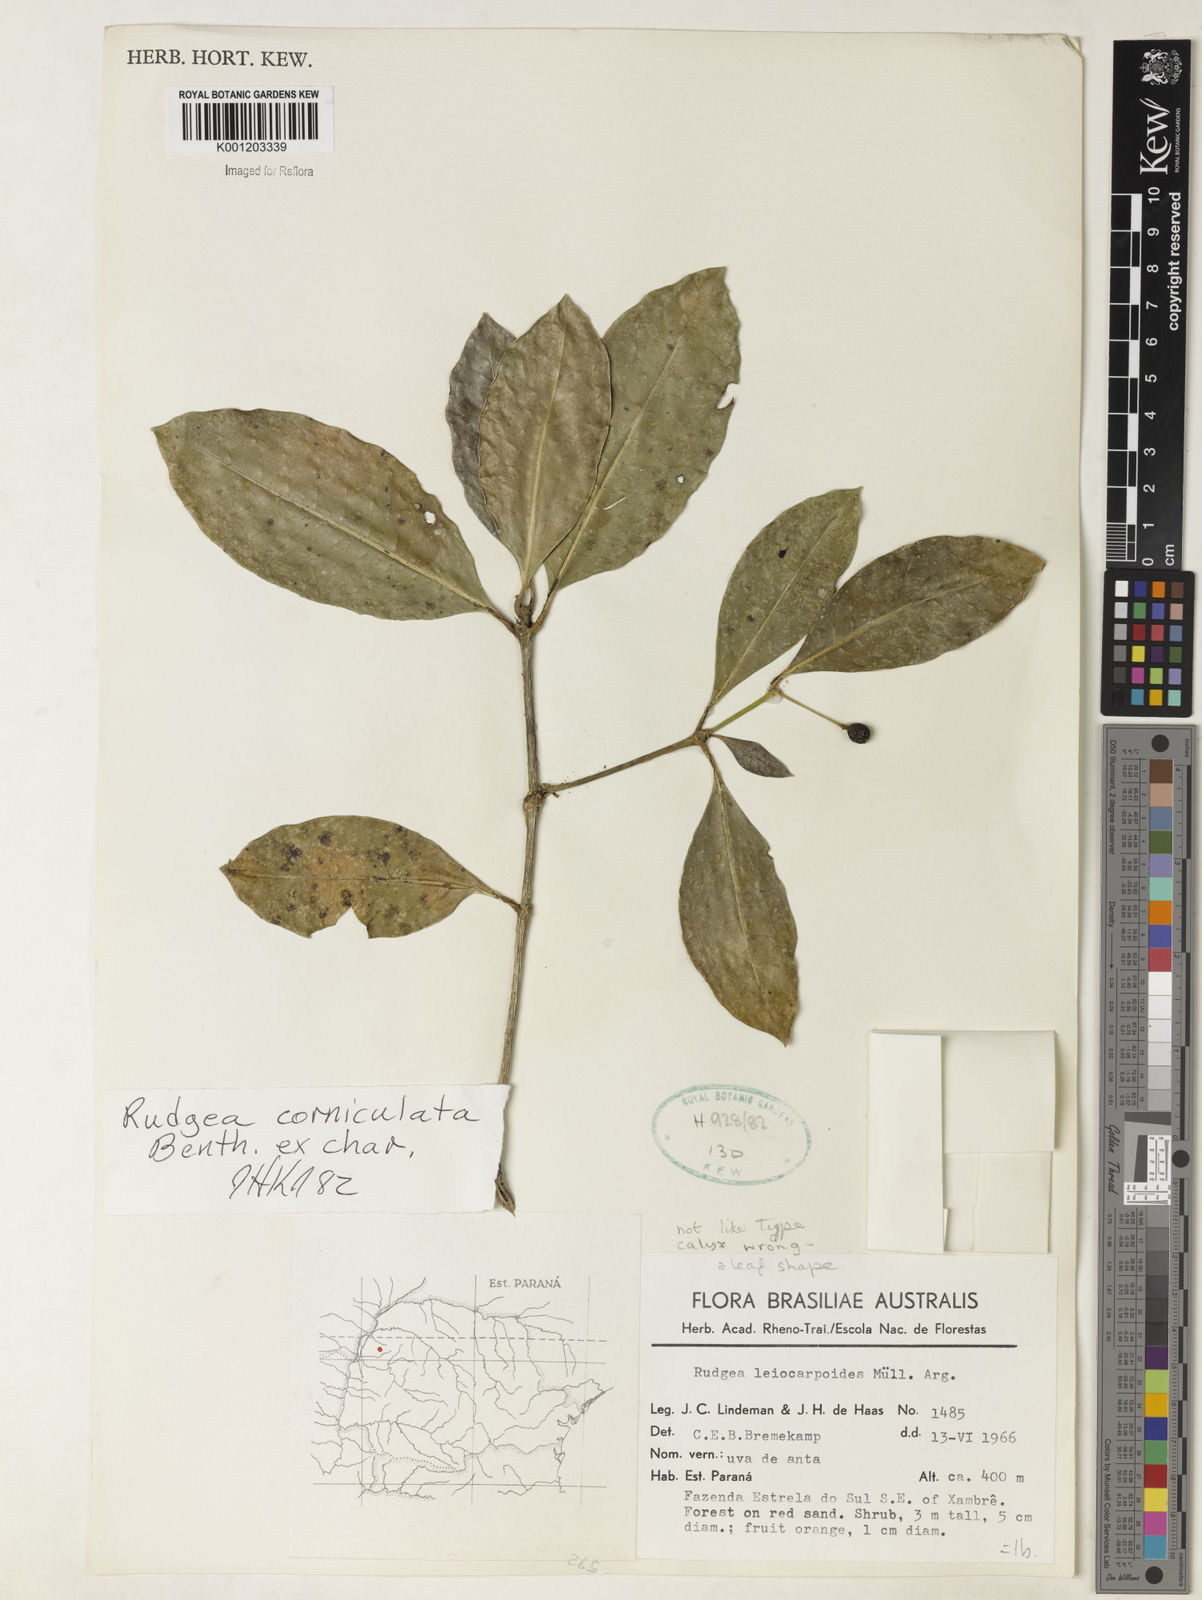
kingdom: Plantae
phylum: Tracheophyta
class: Magnoliopsida
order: Gentianales
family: Rubiaceae
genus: Rudgea
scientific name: Rudgea
